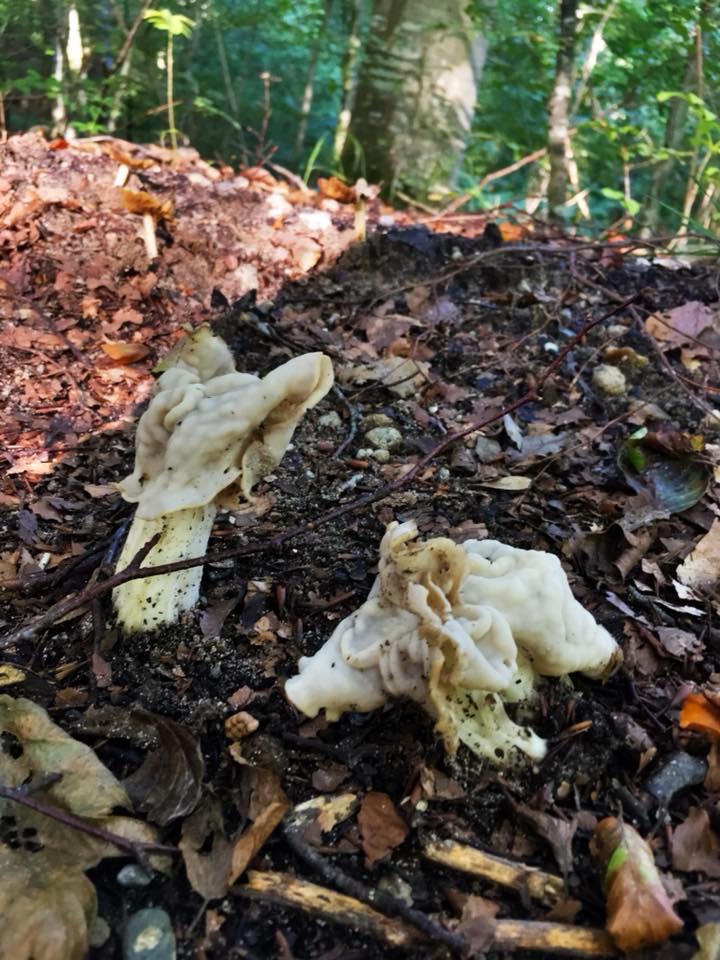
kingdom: Fungi
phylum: Ascomycota
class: Pezizomycetes
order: Pezizales
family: Helvellaceae
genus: Helvella
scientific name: Helvella crispa
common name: kruset foldhat
